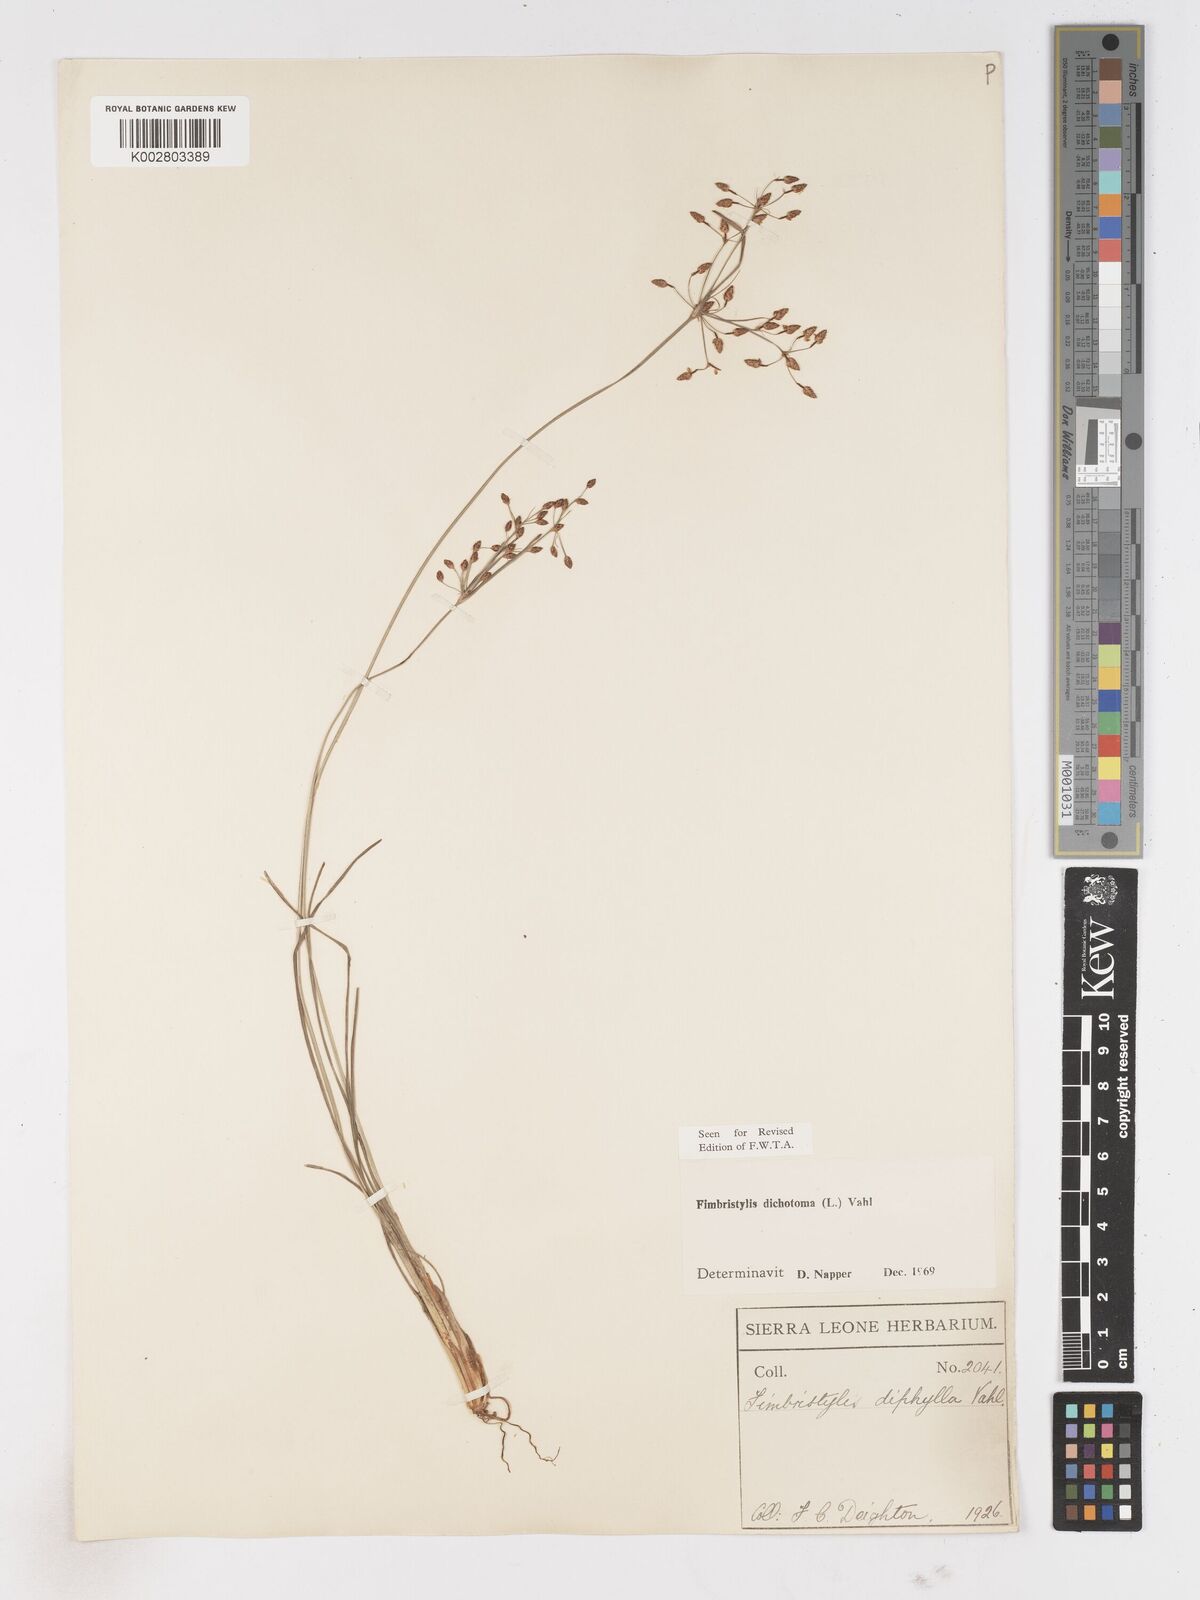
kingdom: Plantae
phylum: Tracheophyta
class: Liliopsida
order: Poales
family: Cyperaceae
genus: Fimbristylis
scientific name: Fimbristylis dichotoma
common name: Forked fimbry
